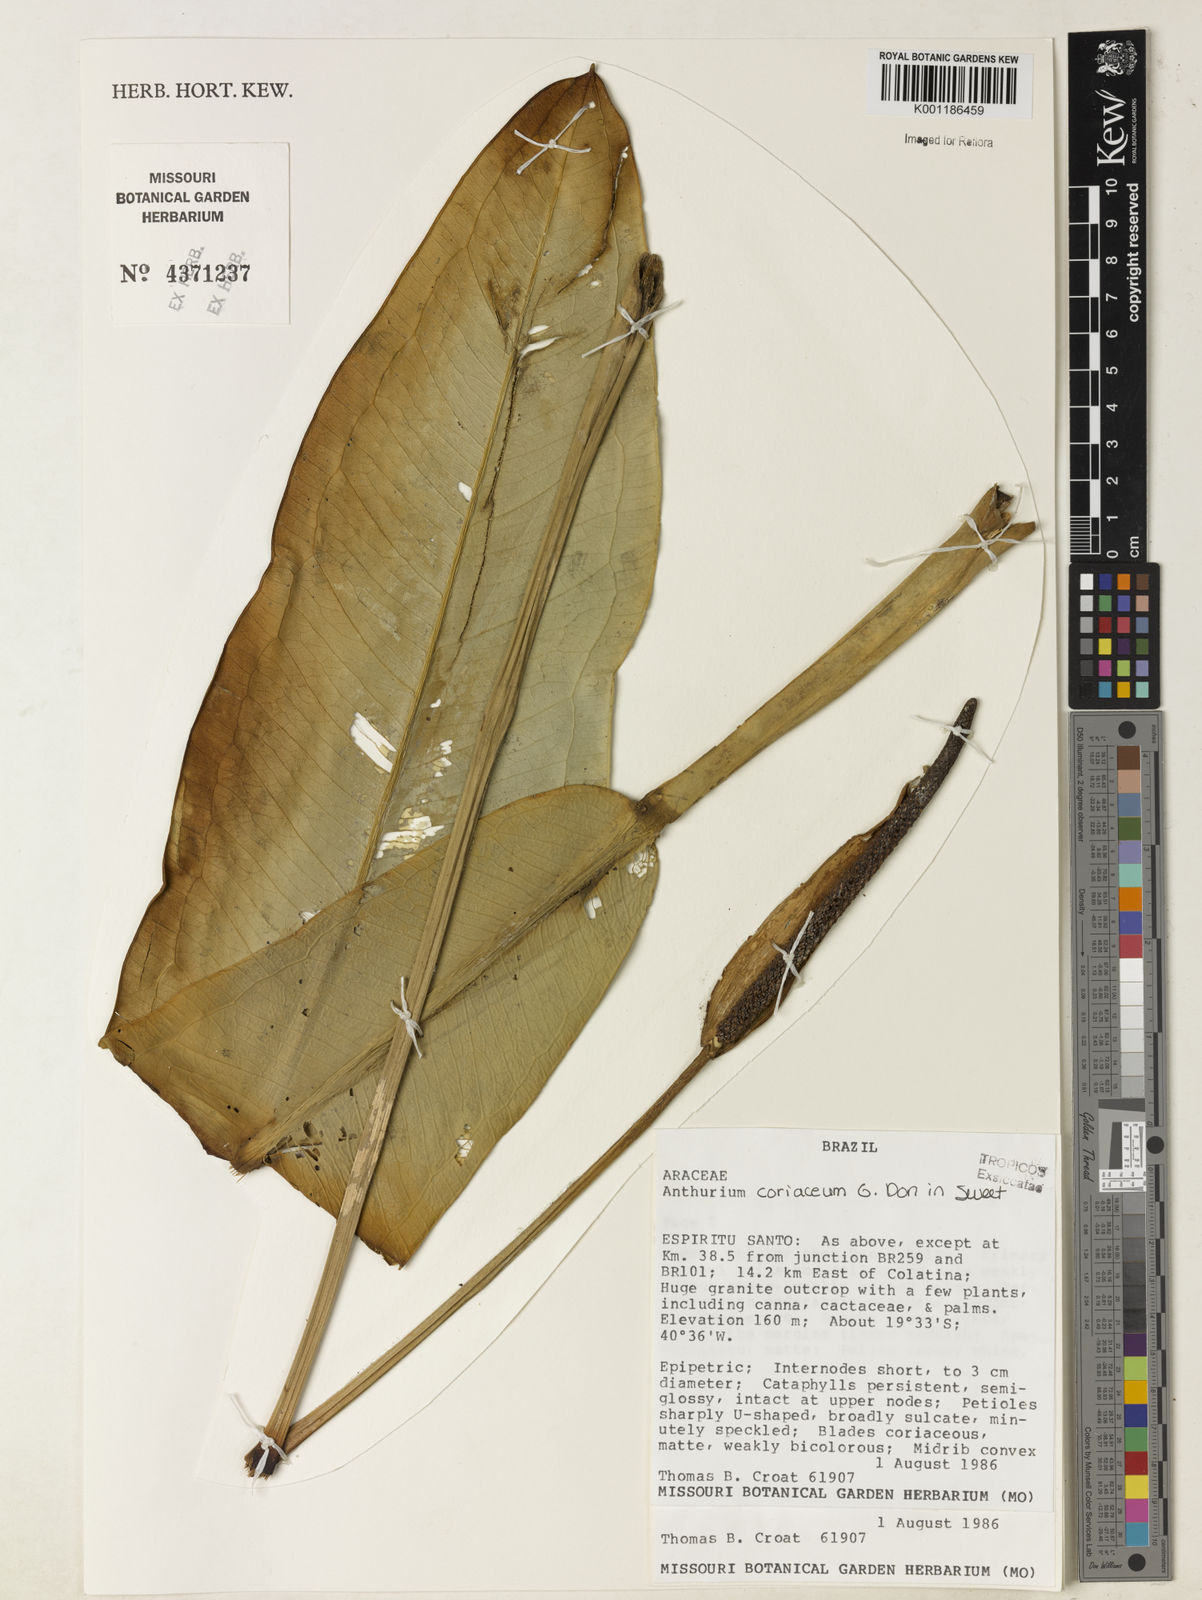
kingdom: Plantae
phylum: Tracheophyta
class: Liliopsida
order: Alismatales
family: Araceae
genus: Anthurium
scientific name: Anthurium coriaceum
